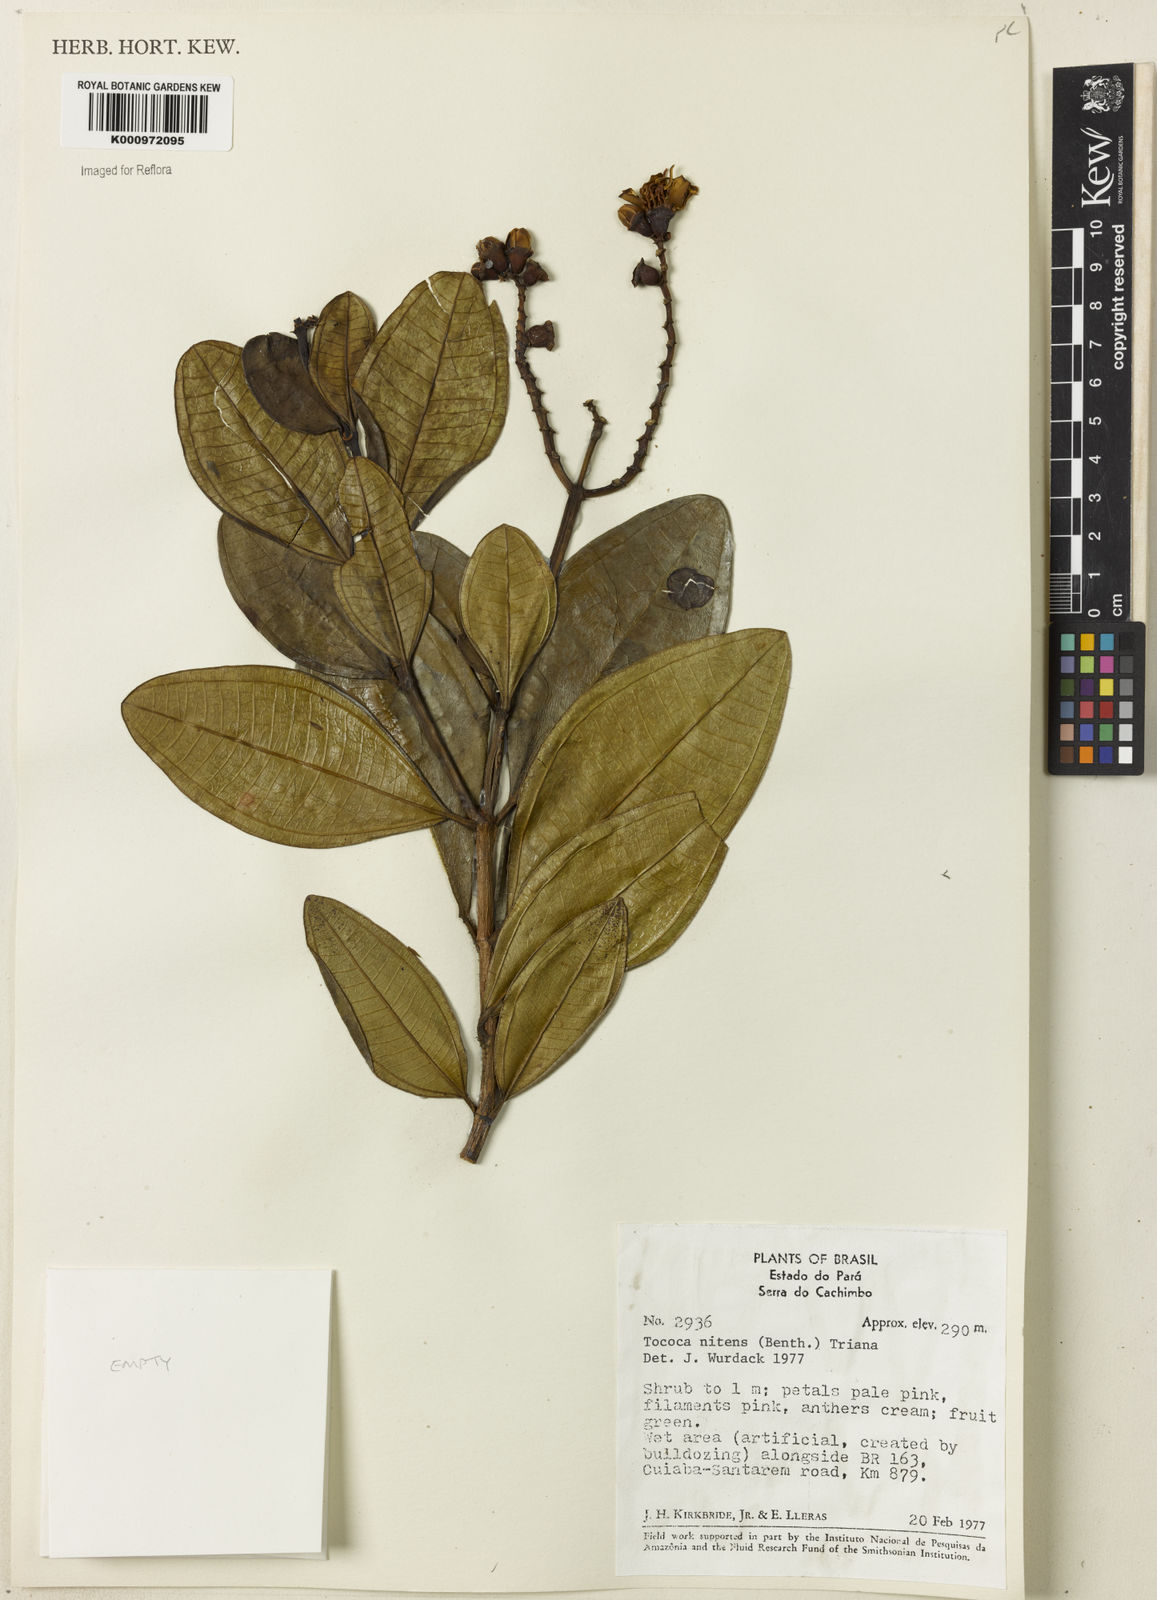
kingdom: Plantae
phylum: Tracheophyta
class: Magnoliopsida
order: Myrtales
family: Melastomataceae
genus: Miconia
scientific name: Miconia nitens
